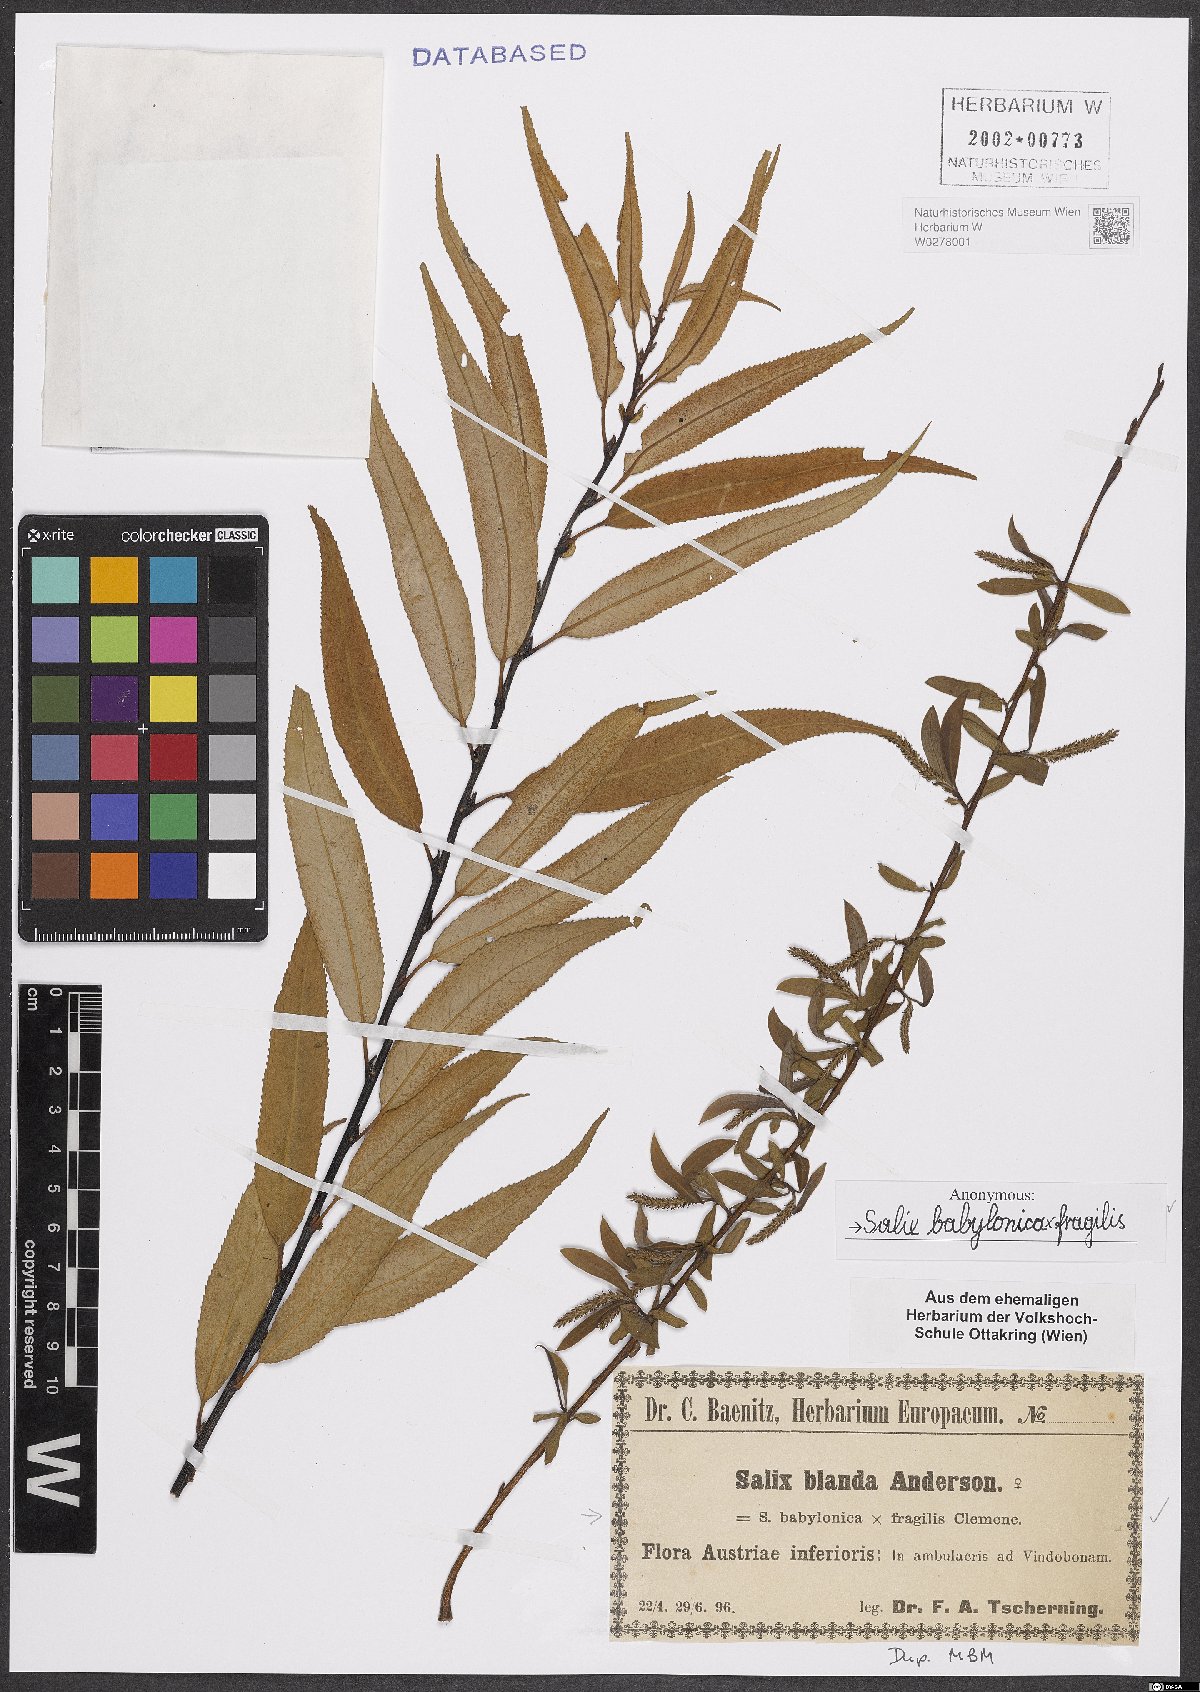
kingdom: Plantae
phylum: Tracheophyta
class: Magnoliopsida
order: Malpighiales
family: Salicaceae
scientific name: Salicaceae
